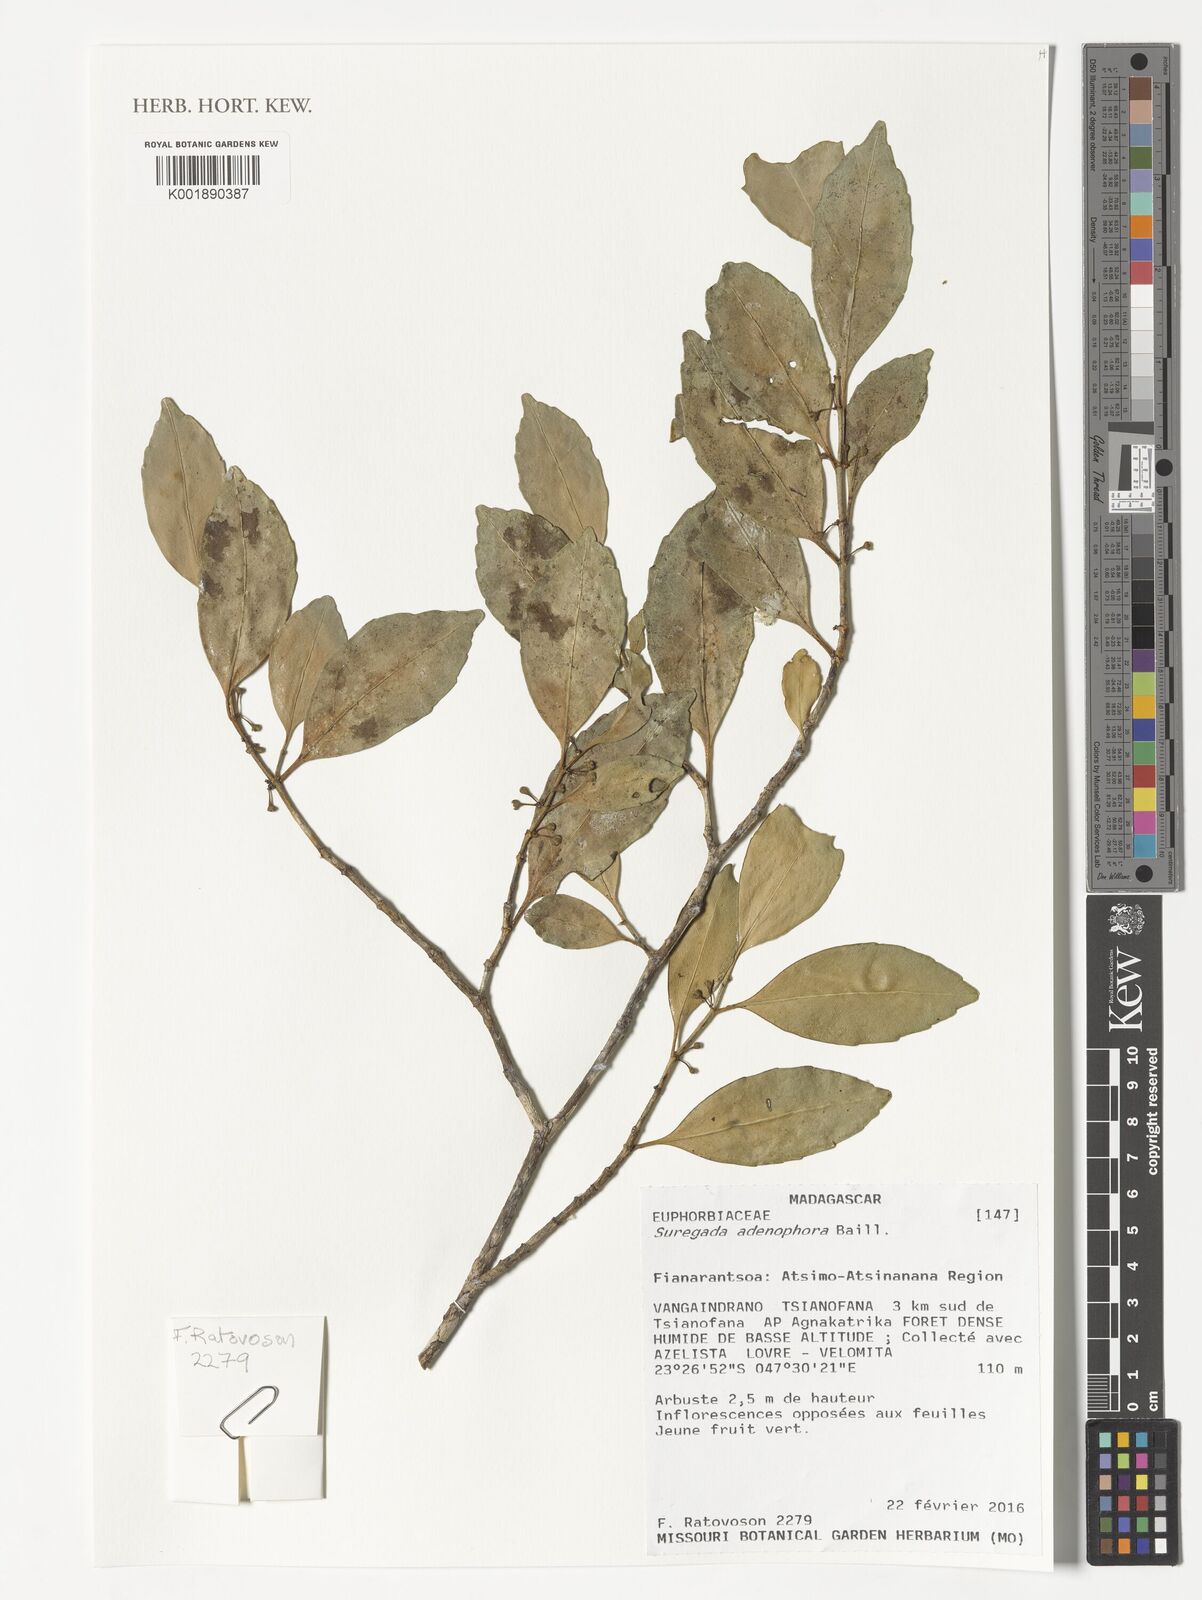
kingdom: Plantae
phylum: Tracheophyta
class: Magnoliopsida
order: Malpighiales
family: Euphorbiaceae
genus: Suregada
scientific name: Suregada adenophora
